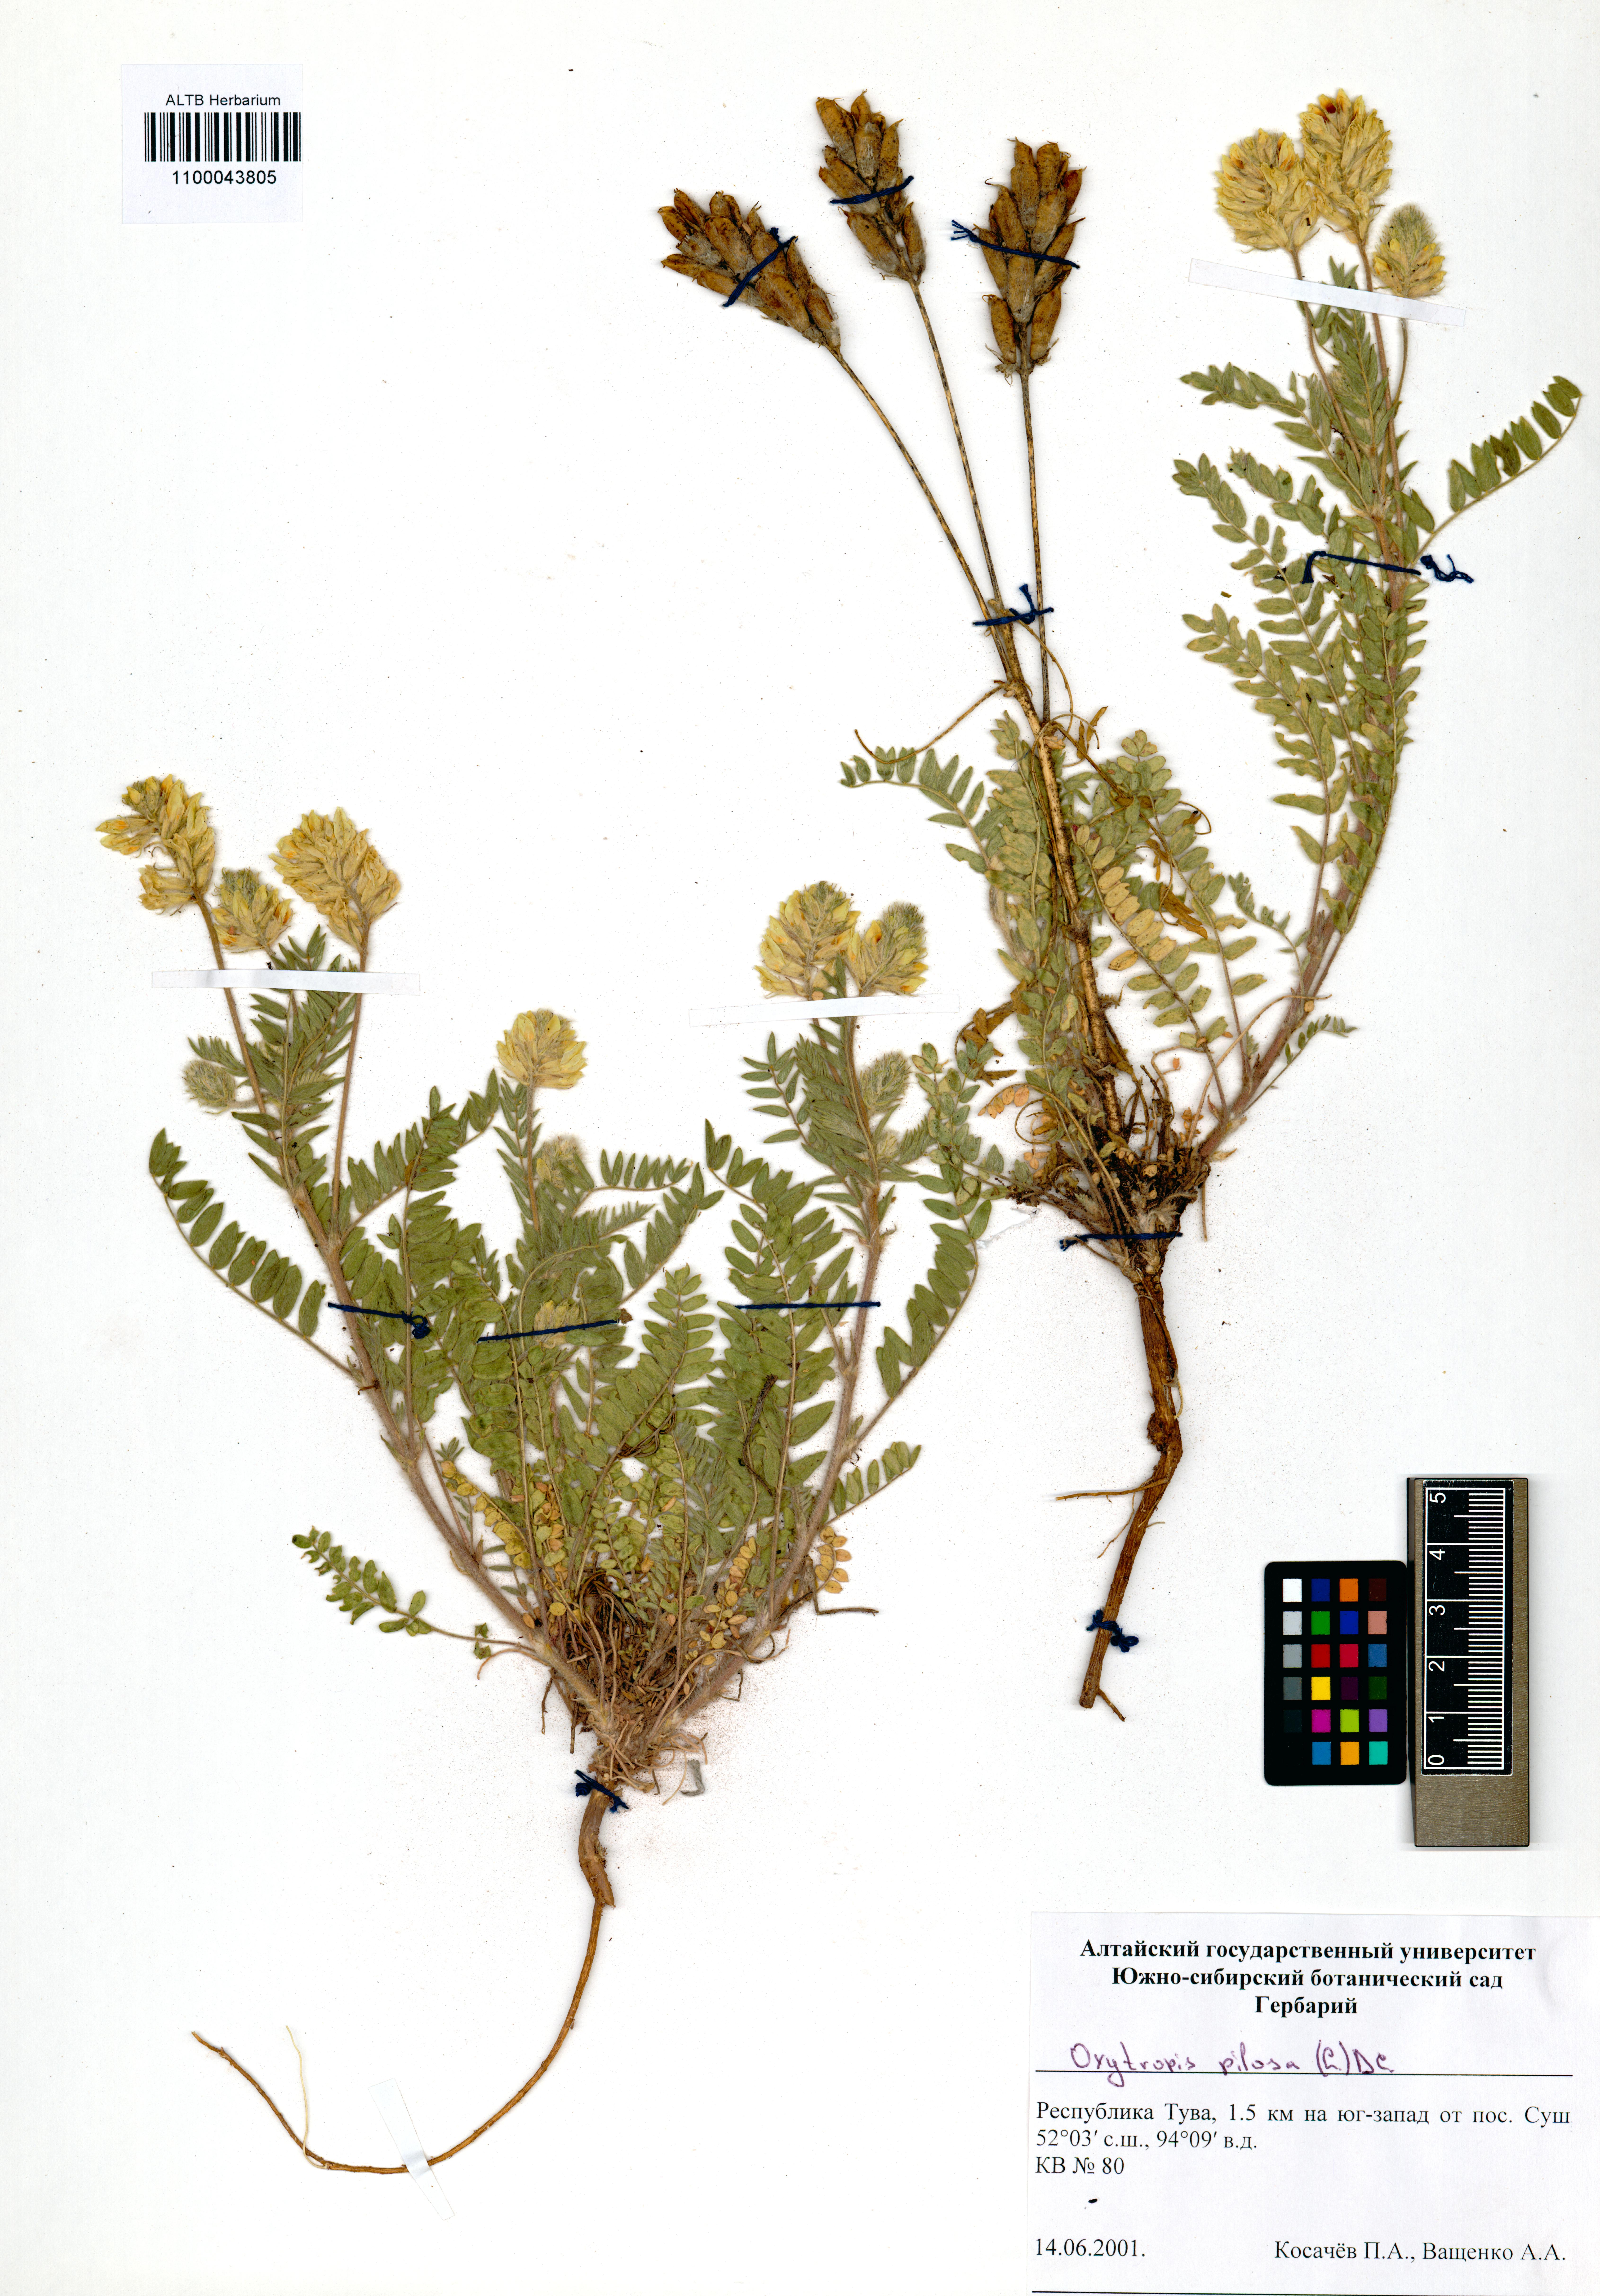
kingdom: Plantae
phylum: Tracheophyta
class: Magnoliopsida
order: Fabales
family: Fabaceae
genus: Oxytropis
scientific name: Oxytropis pilosa
